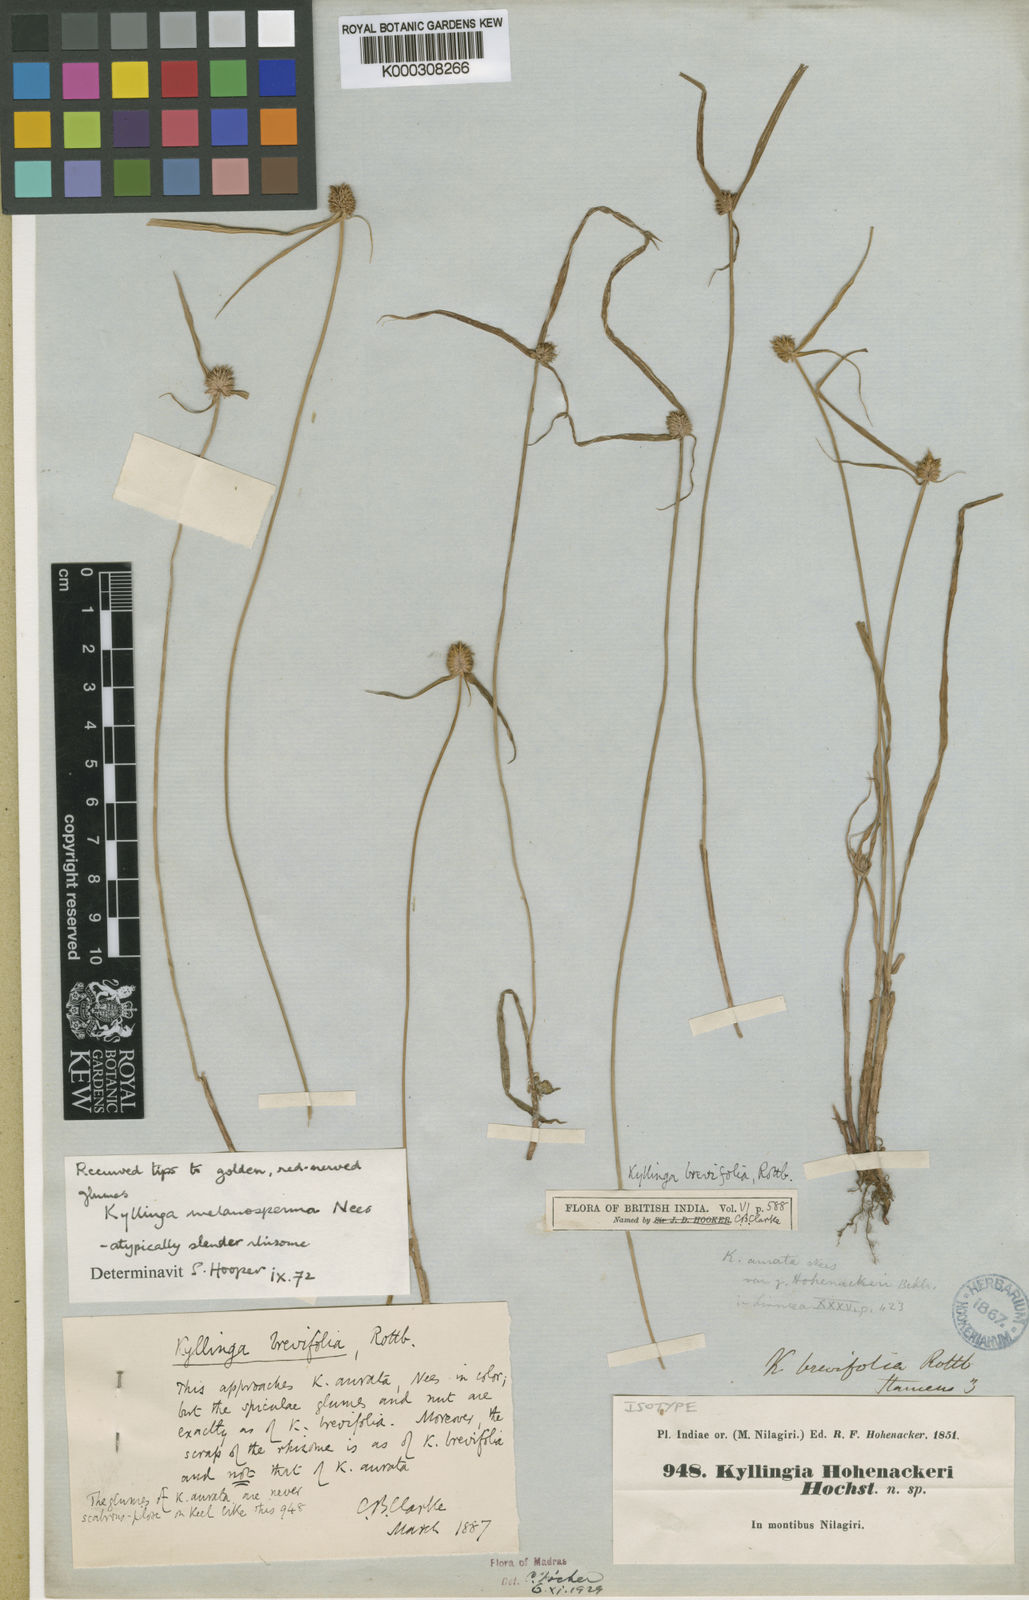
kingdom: Plantae
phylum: Tracheophyta
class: Liliopsida
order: Poales
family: Cyperaceae
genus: Cyperus
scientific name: Cyperus brevifolius
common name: Globe kyllinga
